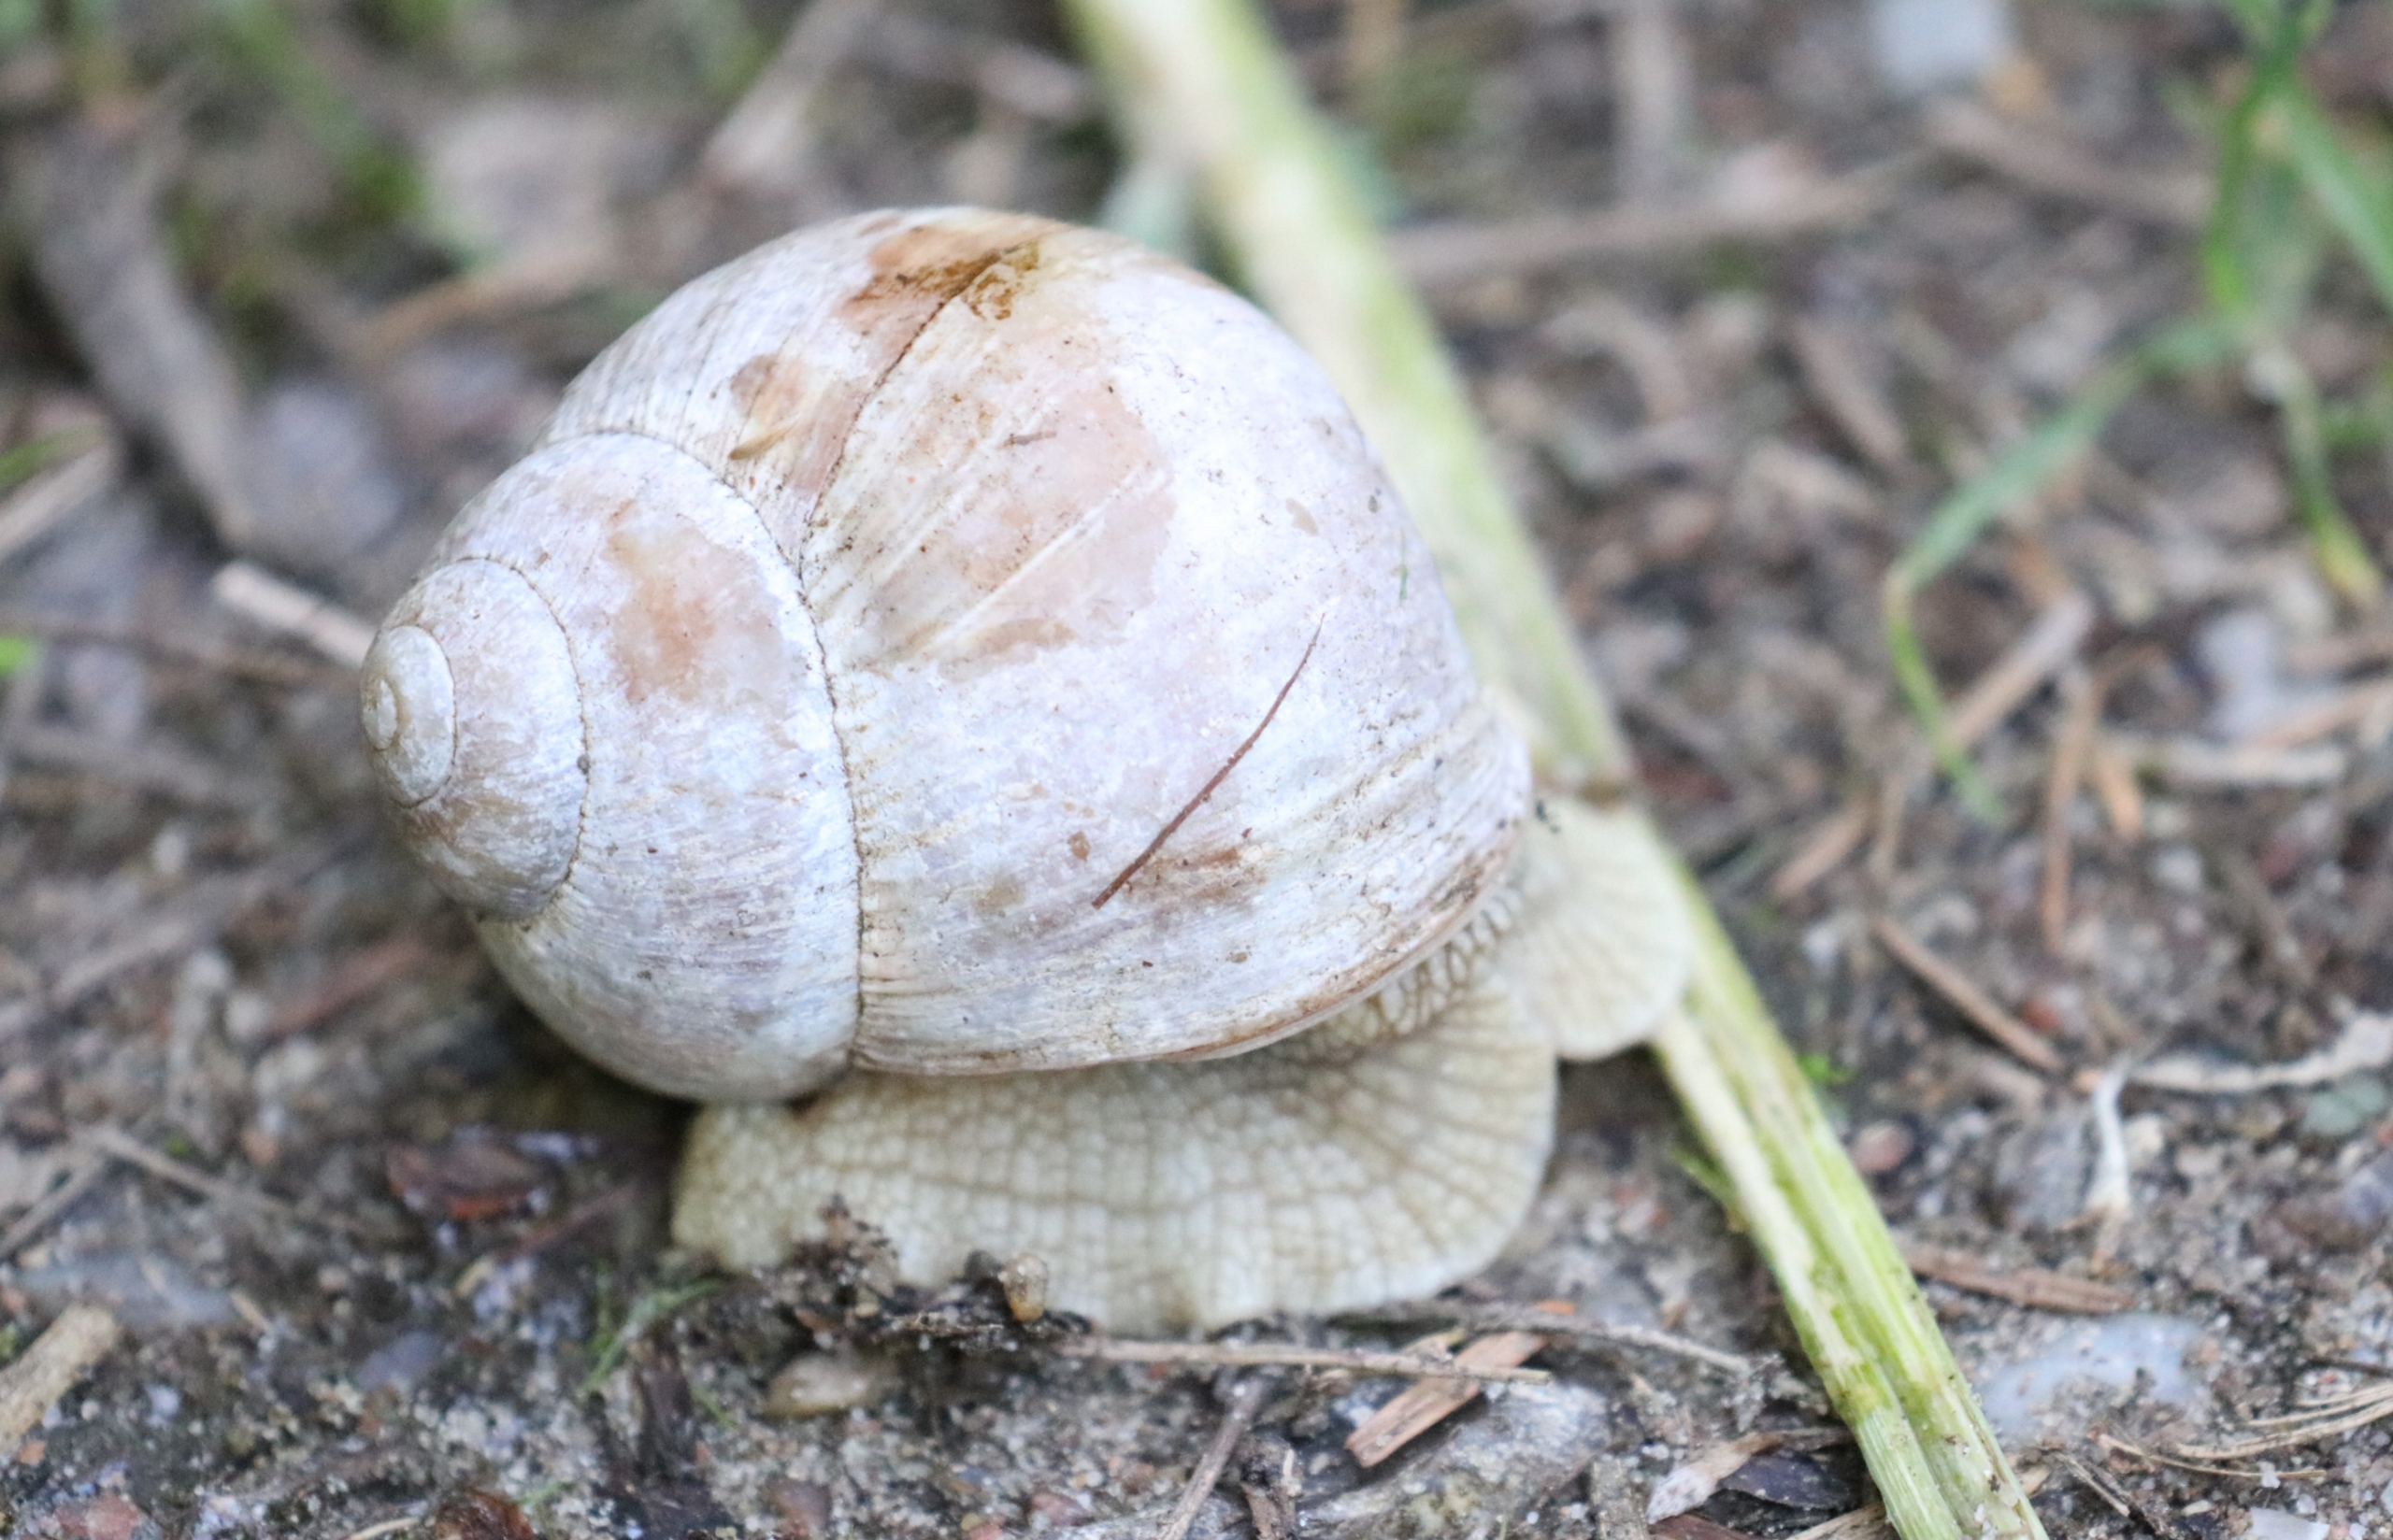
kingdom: Animalia
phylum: Mollusca
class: Gastropoda
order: Stylommatophora
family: Helicidae
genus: Helix
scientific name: Helix pomatia
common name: Vinbjergsnegl
